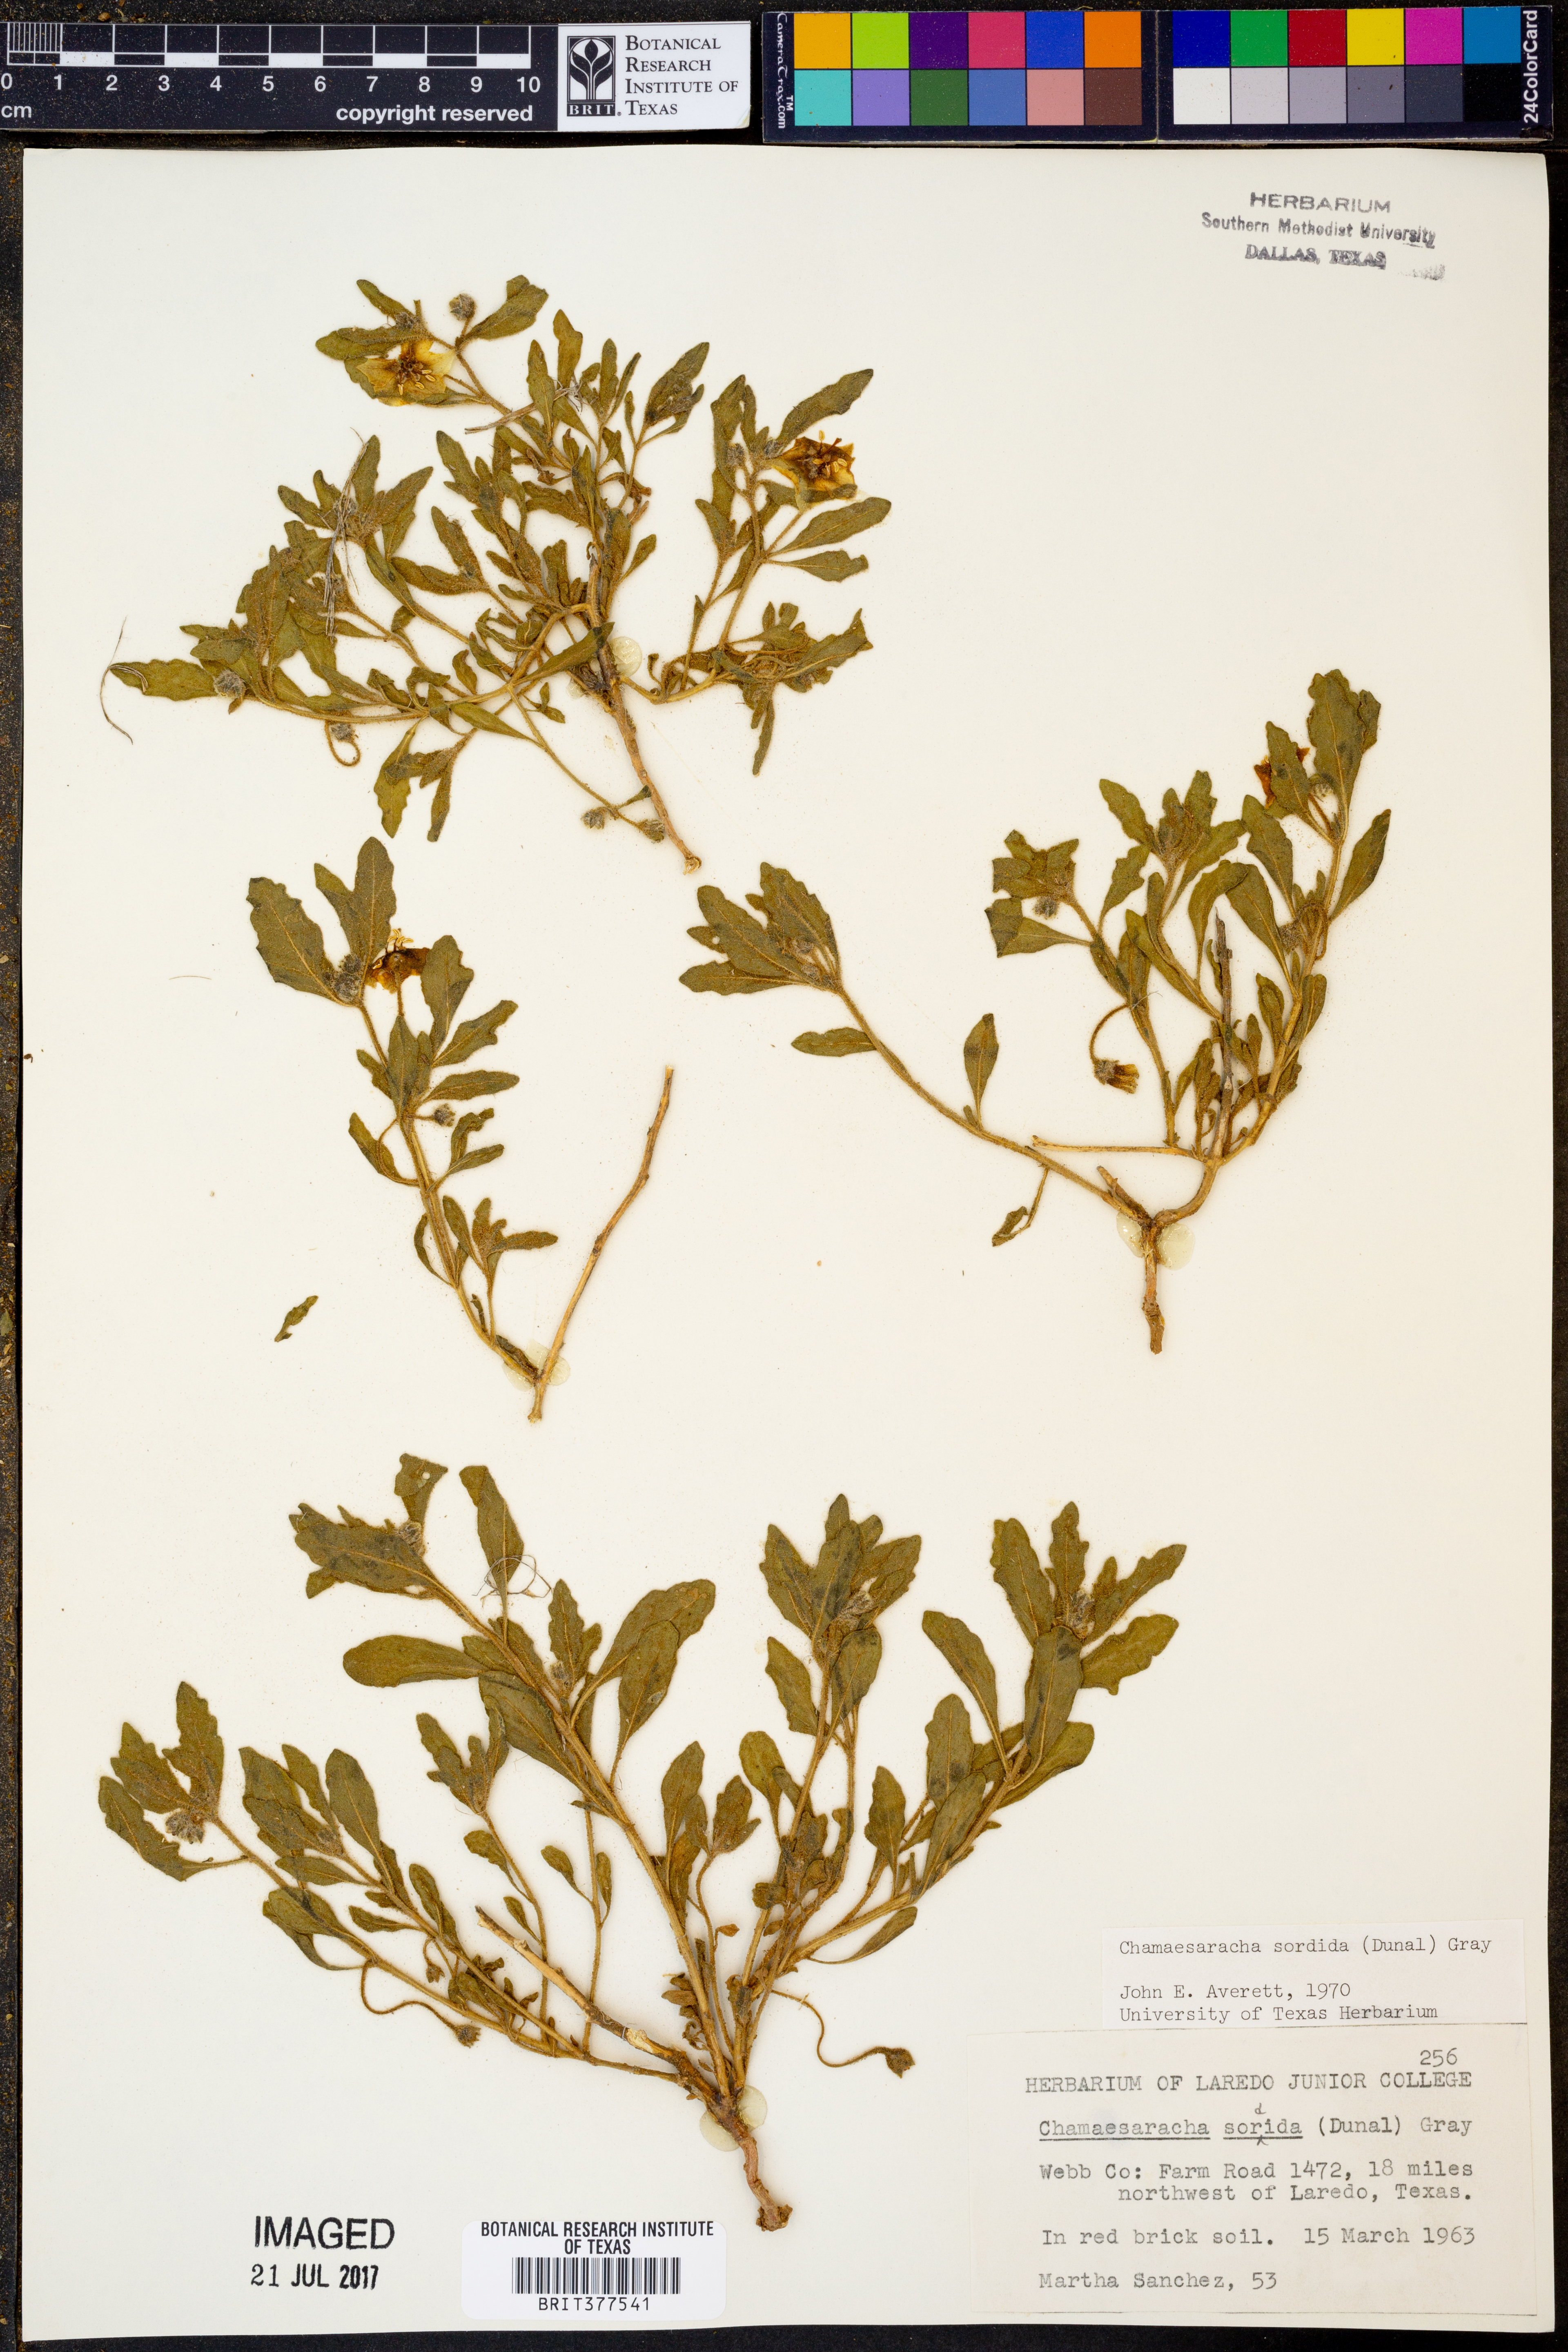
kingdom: Plantae
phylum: Tracheophyta
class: Magnoliopsida
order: Solanales
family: Solanaceae
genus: Chamaesaracha
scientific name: Chamaesaracha sordida
